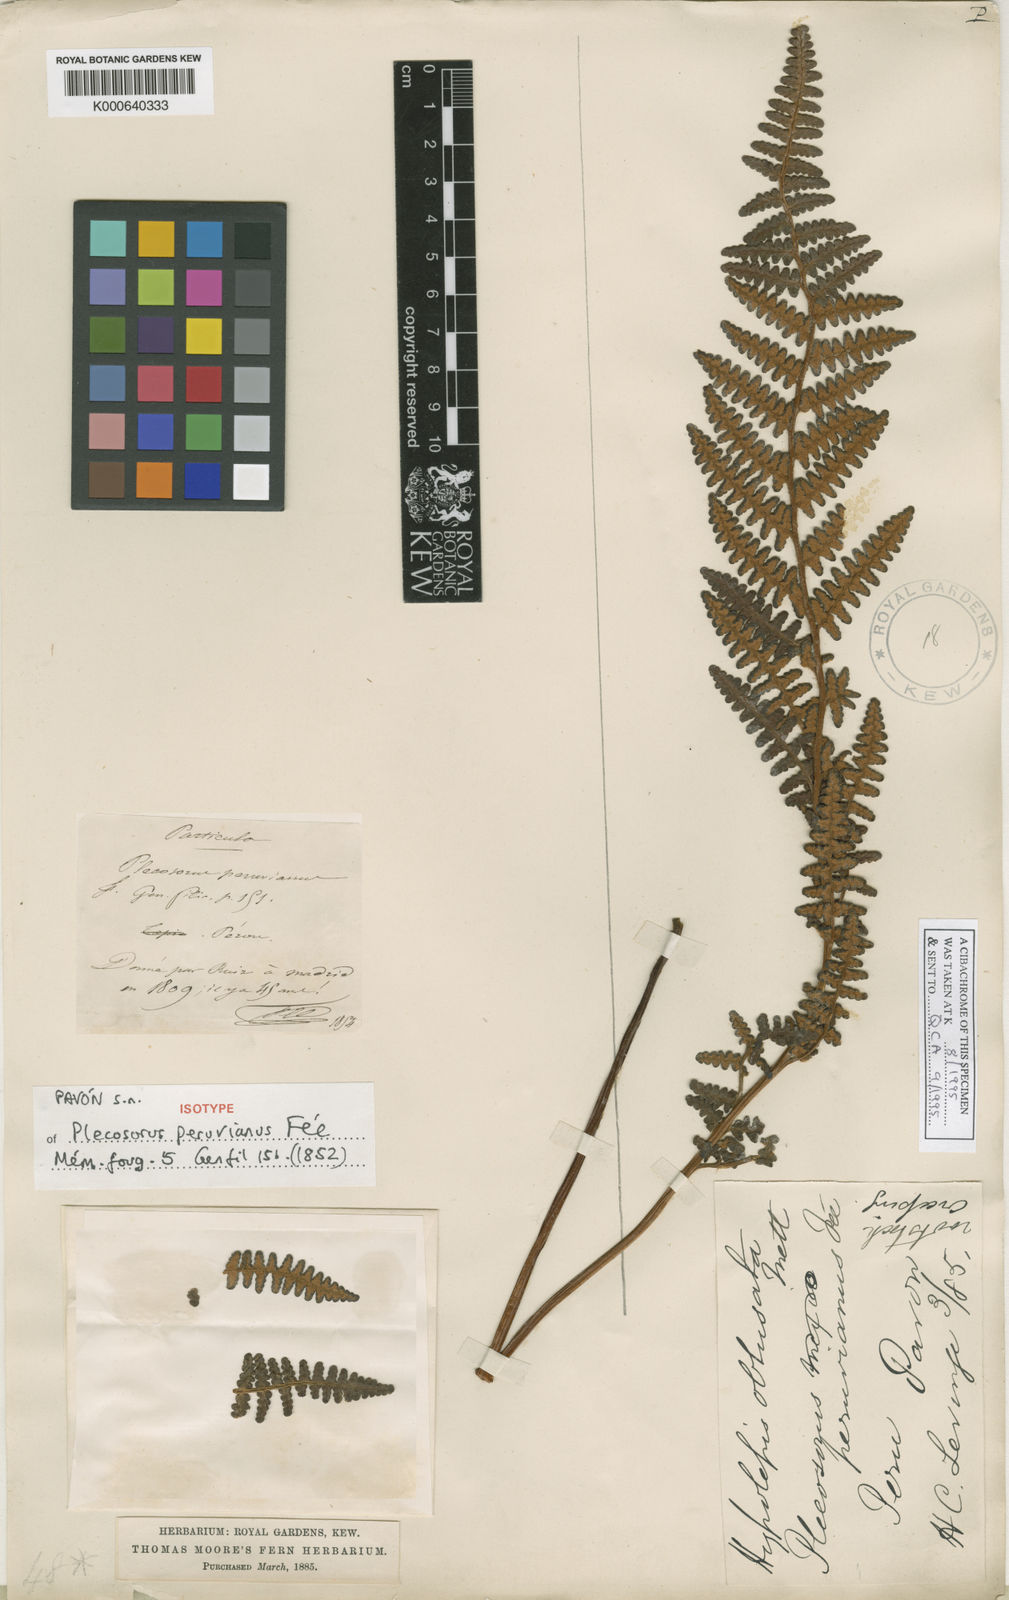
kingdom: Plantae
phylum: Tracheophyta
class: Polypodiopsida
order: Polypodiales
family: Dennstaedtiaceae
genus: Hypolepis
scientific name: Hypolepis
